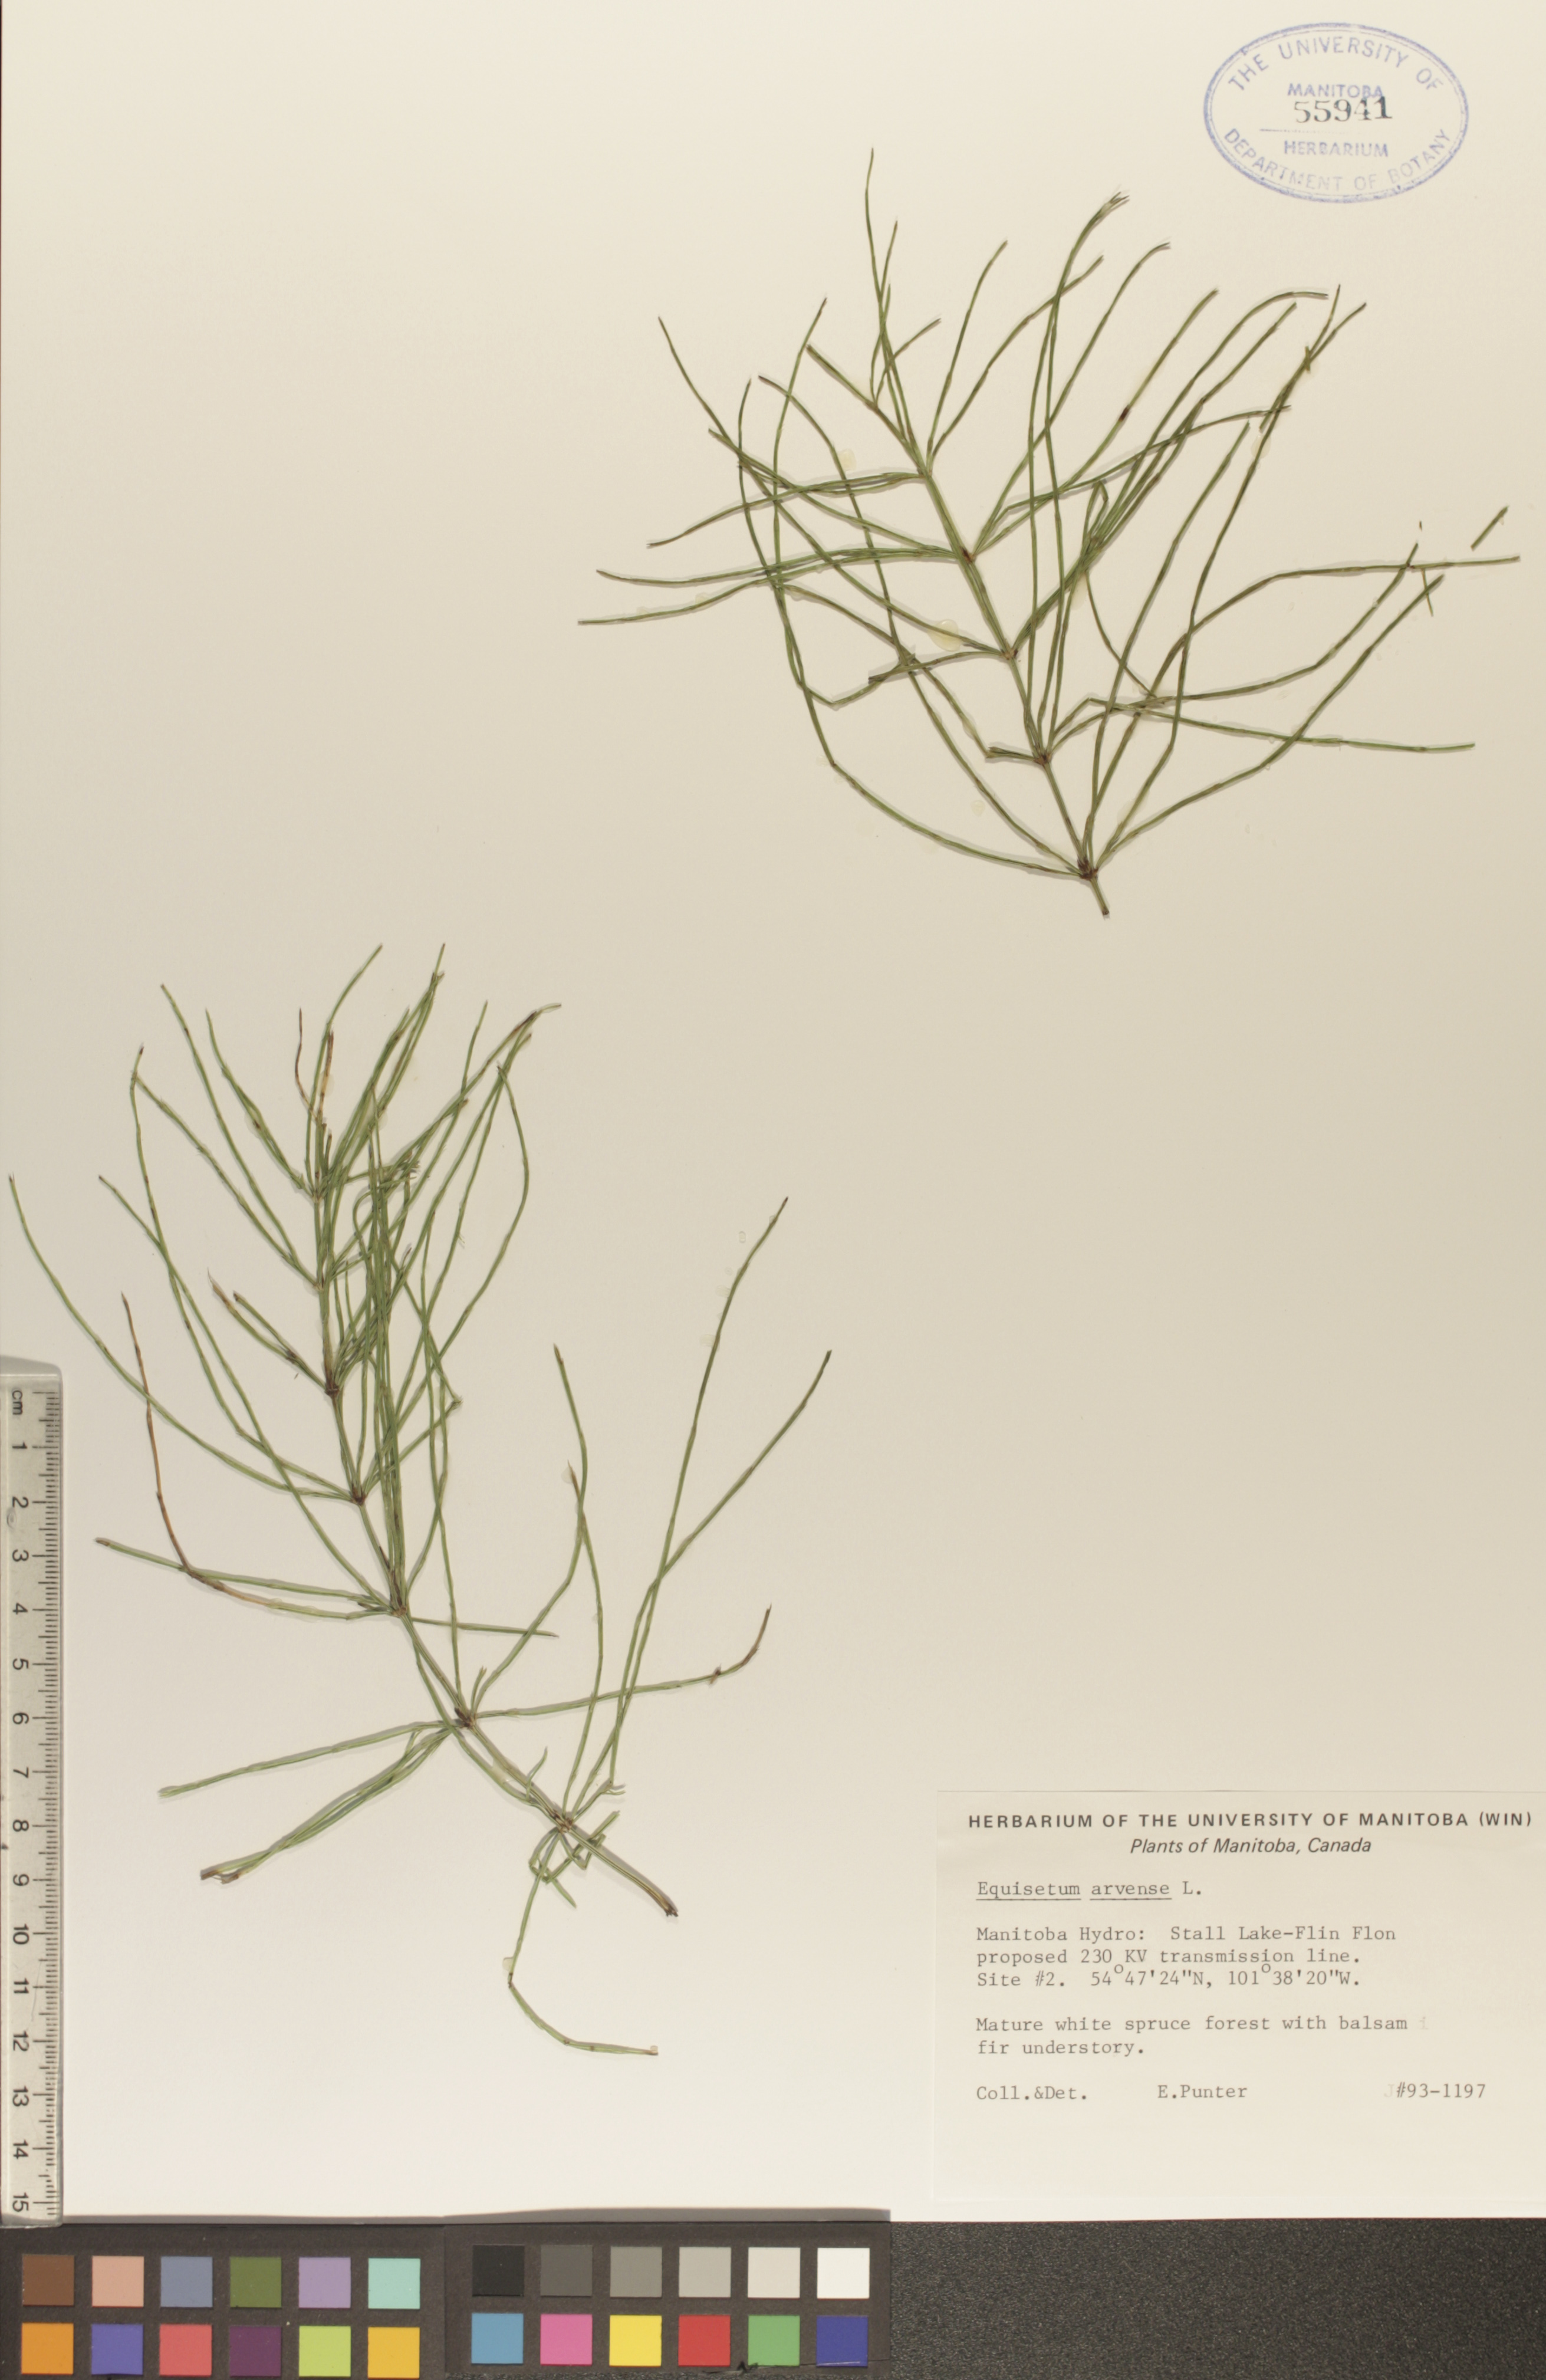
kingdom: Plantae
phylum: Tracheophyta
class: Polypodiopsida
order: Equisetales
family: Equisetaceae
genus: Equisetum
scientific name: Equisetum arvense
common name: Field horsetail
